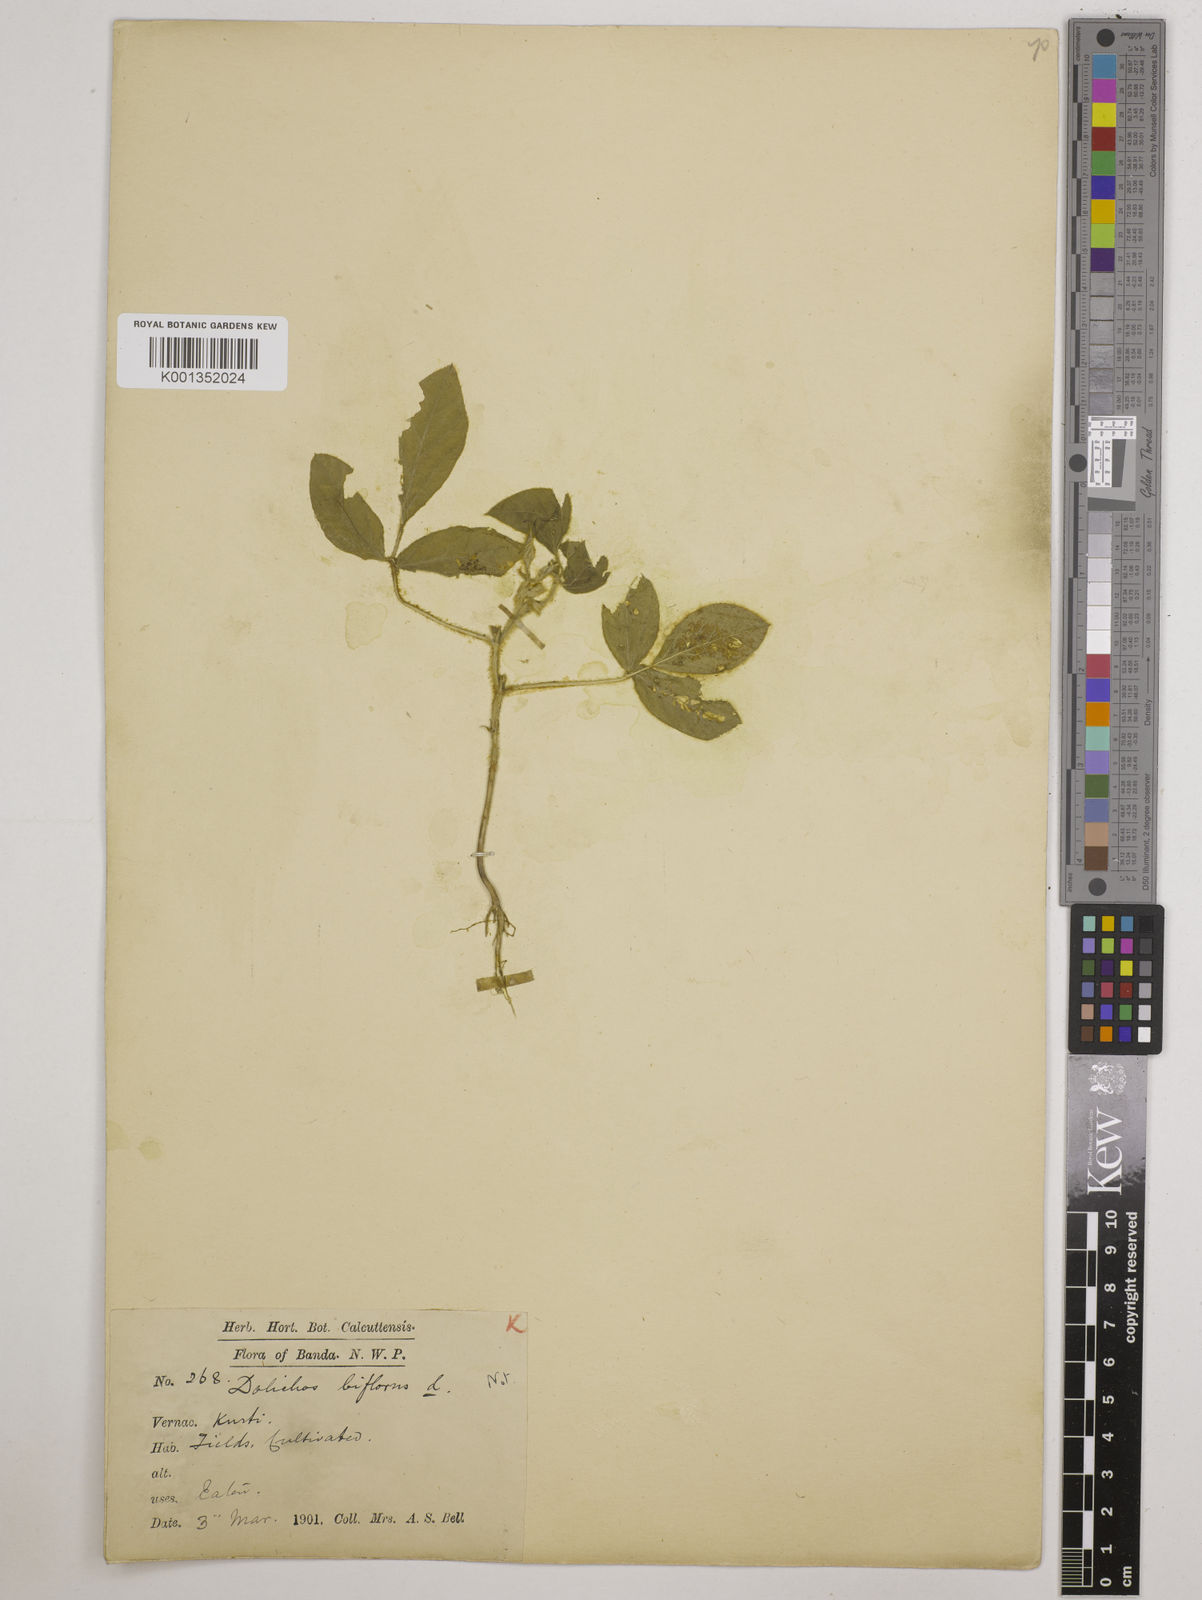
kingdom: Plantae
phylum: Tracheophyta
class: Magnoliopsida
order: Fabales
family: Fabaceae
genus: Macrotyloma
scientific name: Macrotyloma uniflorum
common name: Horse gram
